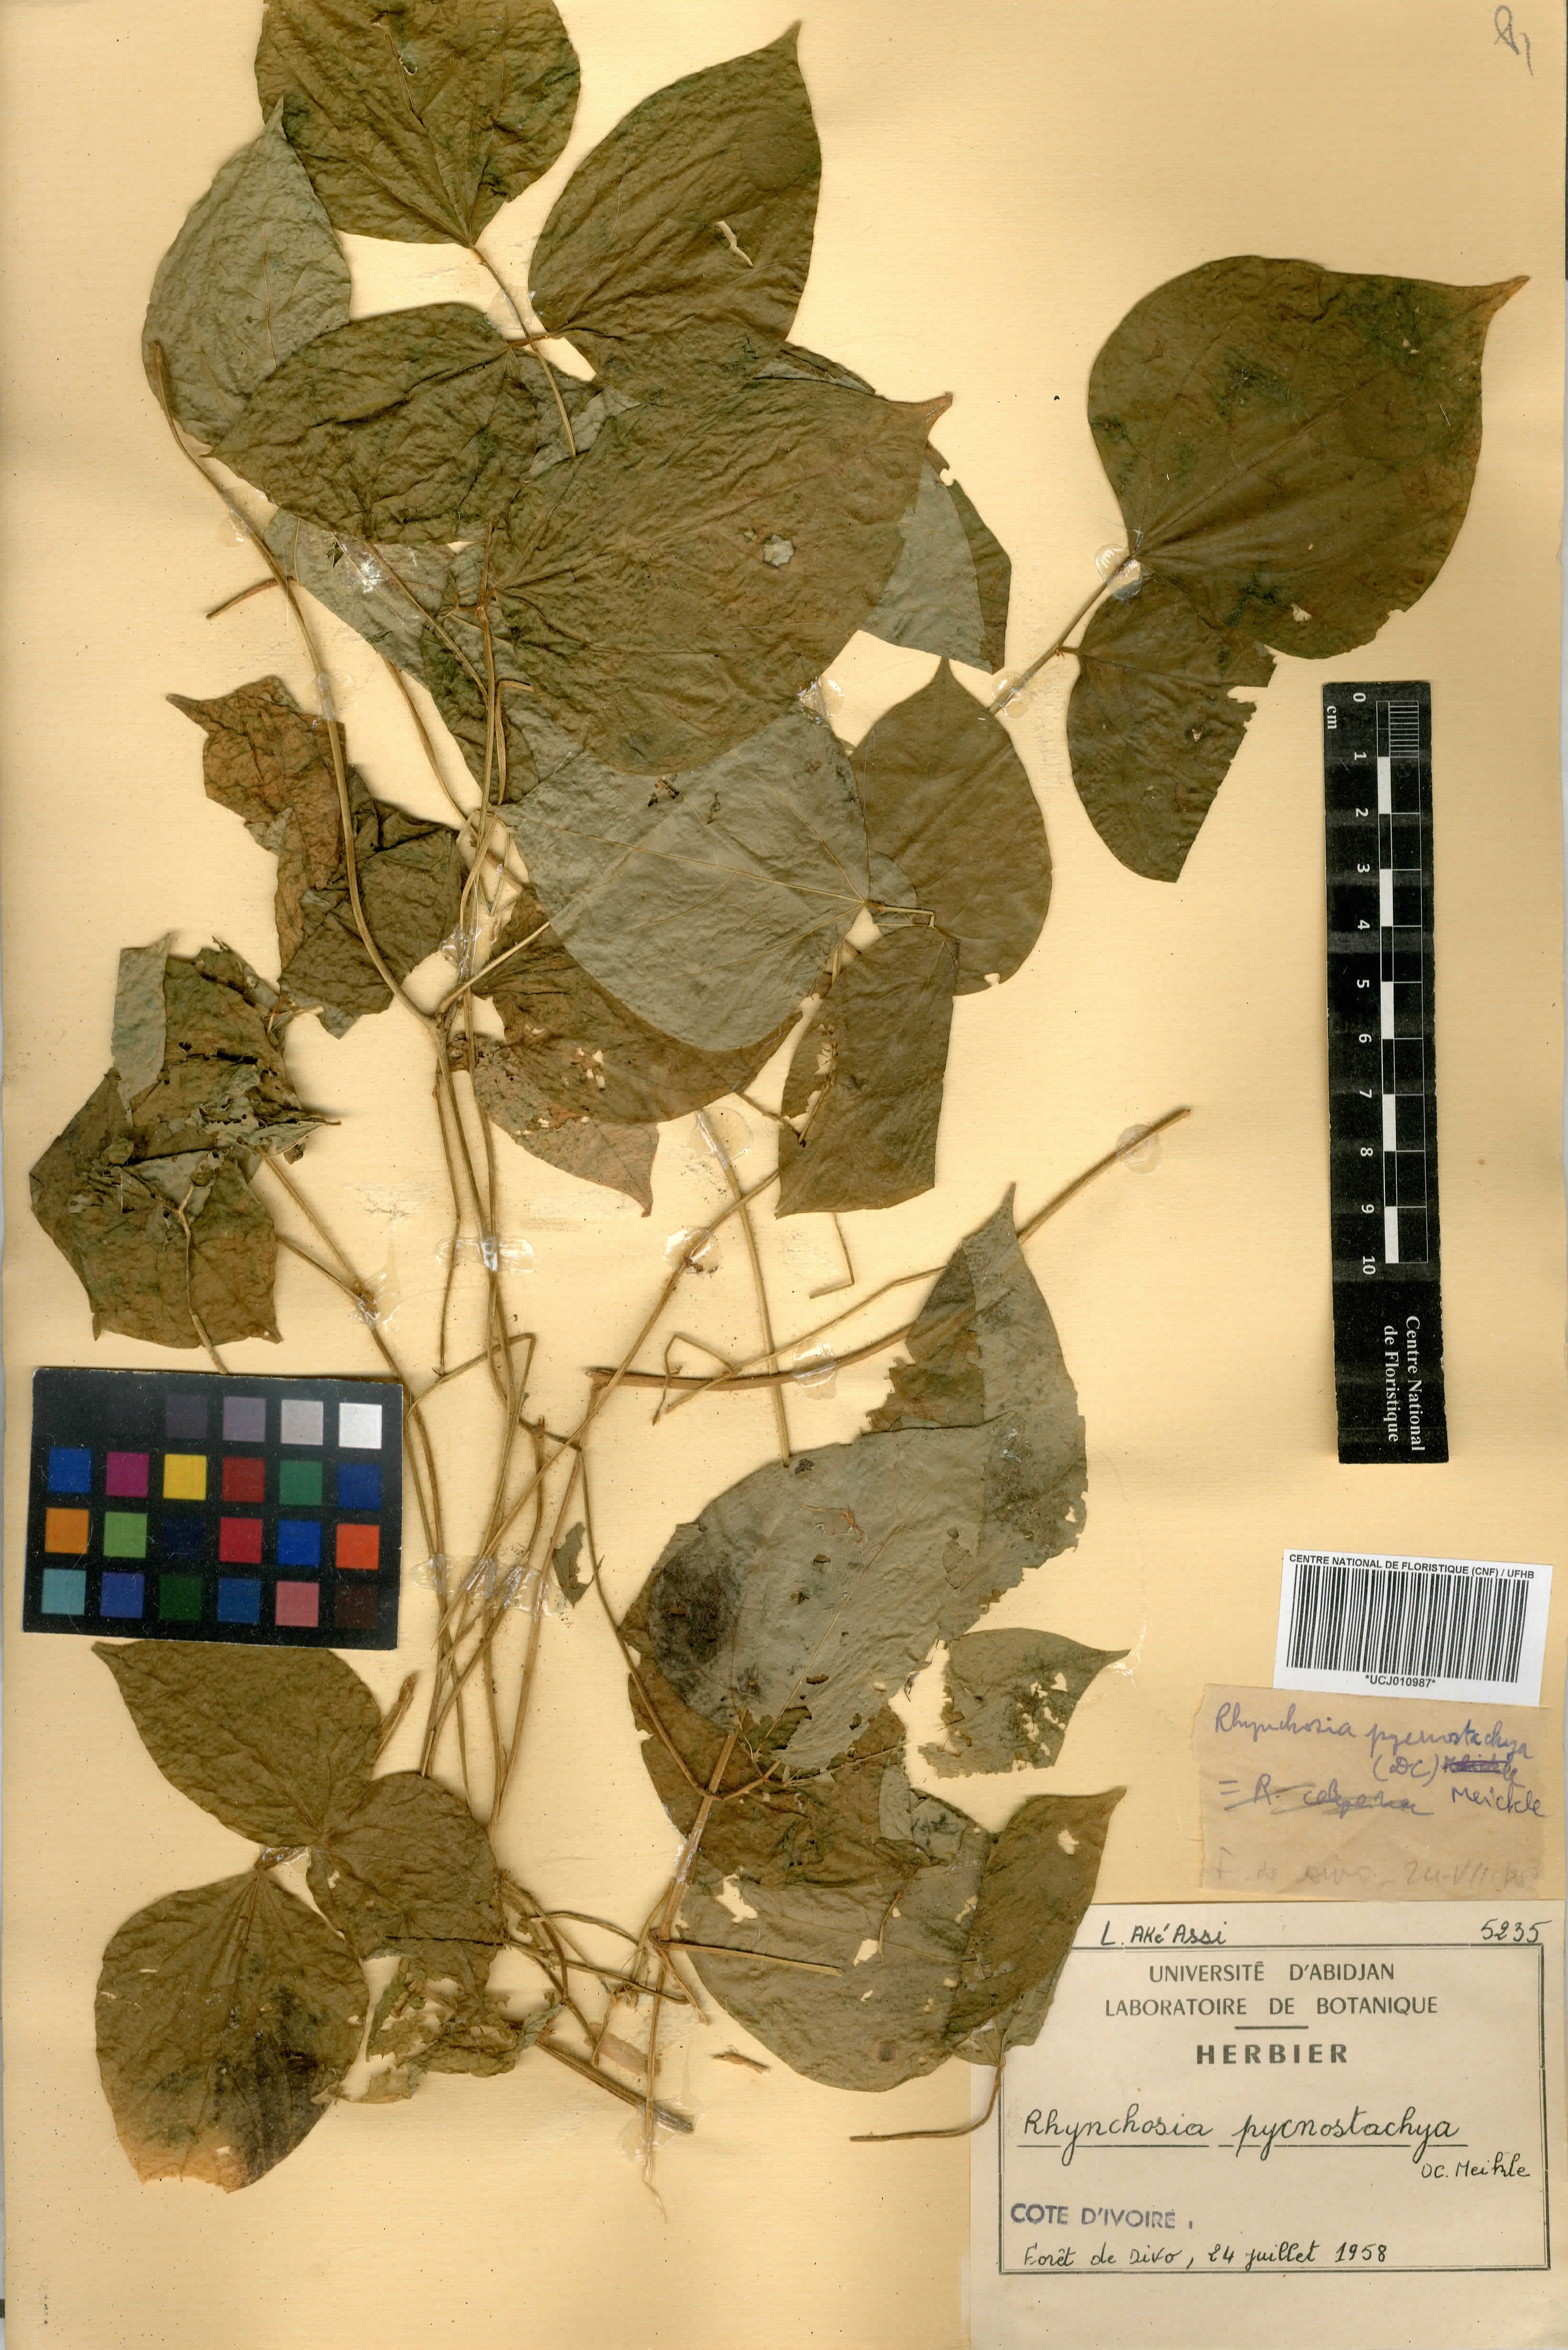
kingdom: Plantae
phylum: Tracheophyta
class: Magnoliopsida
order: Fabales
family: Fabaceae
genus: Rhynchosia
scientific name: Rhynchosia pycnostachya
